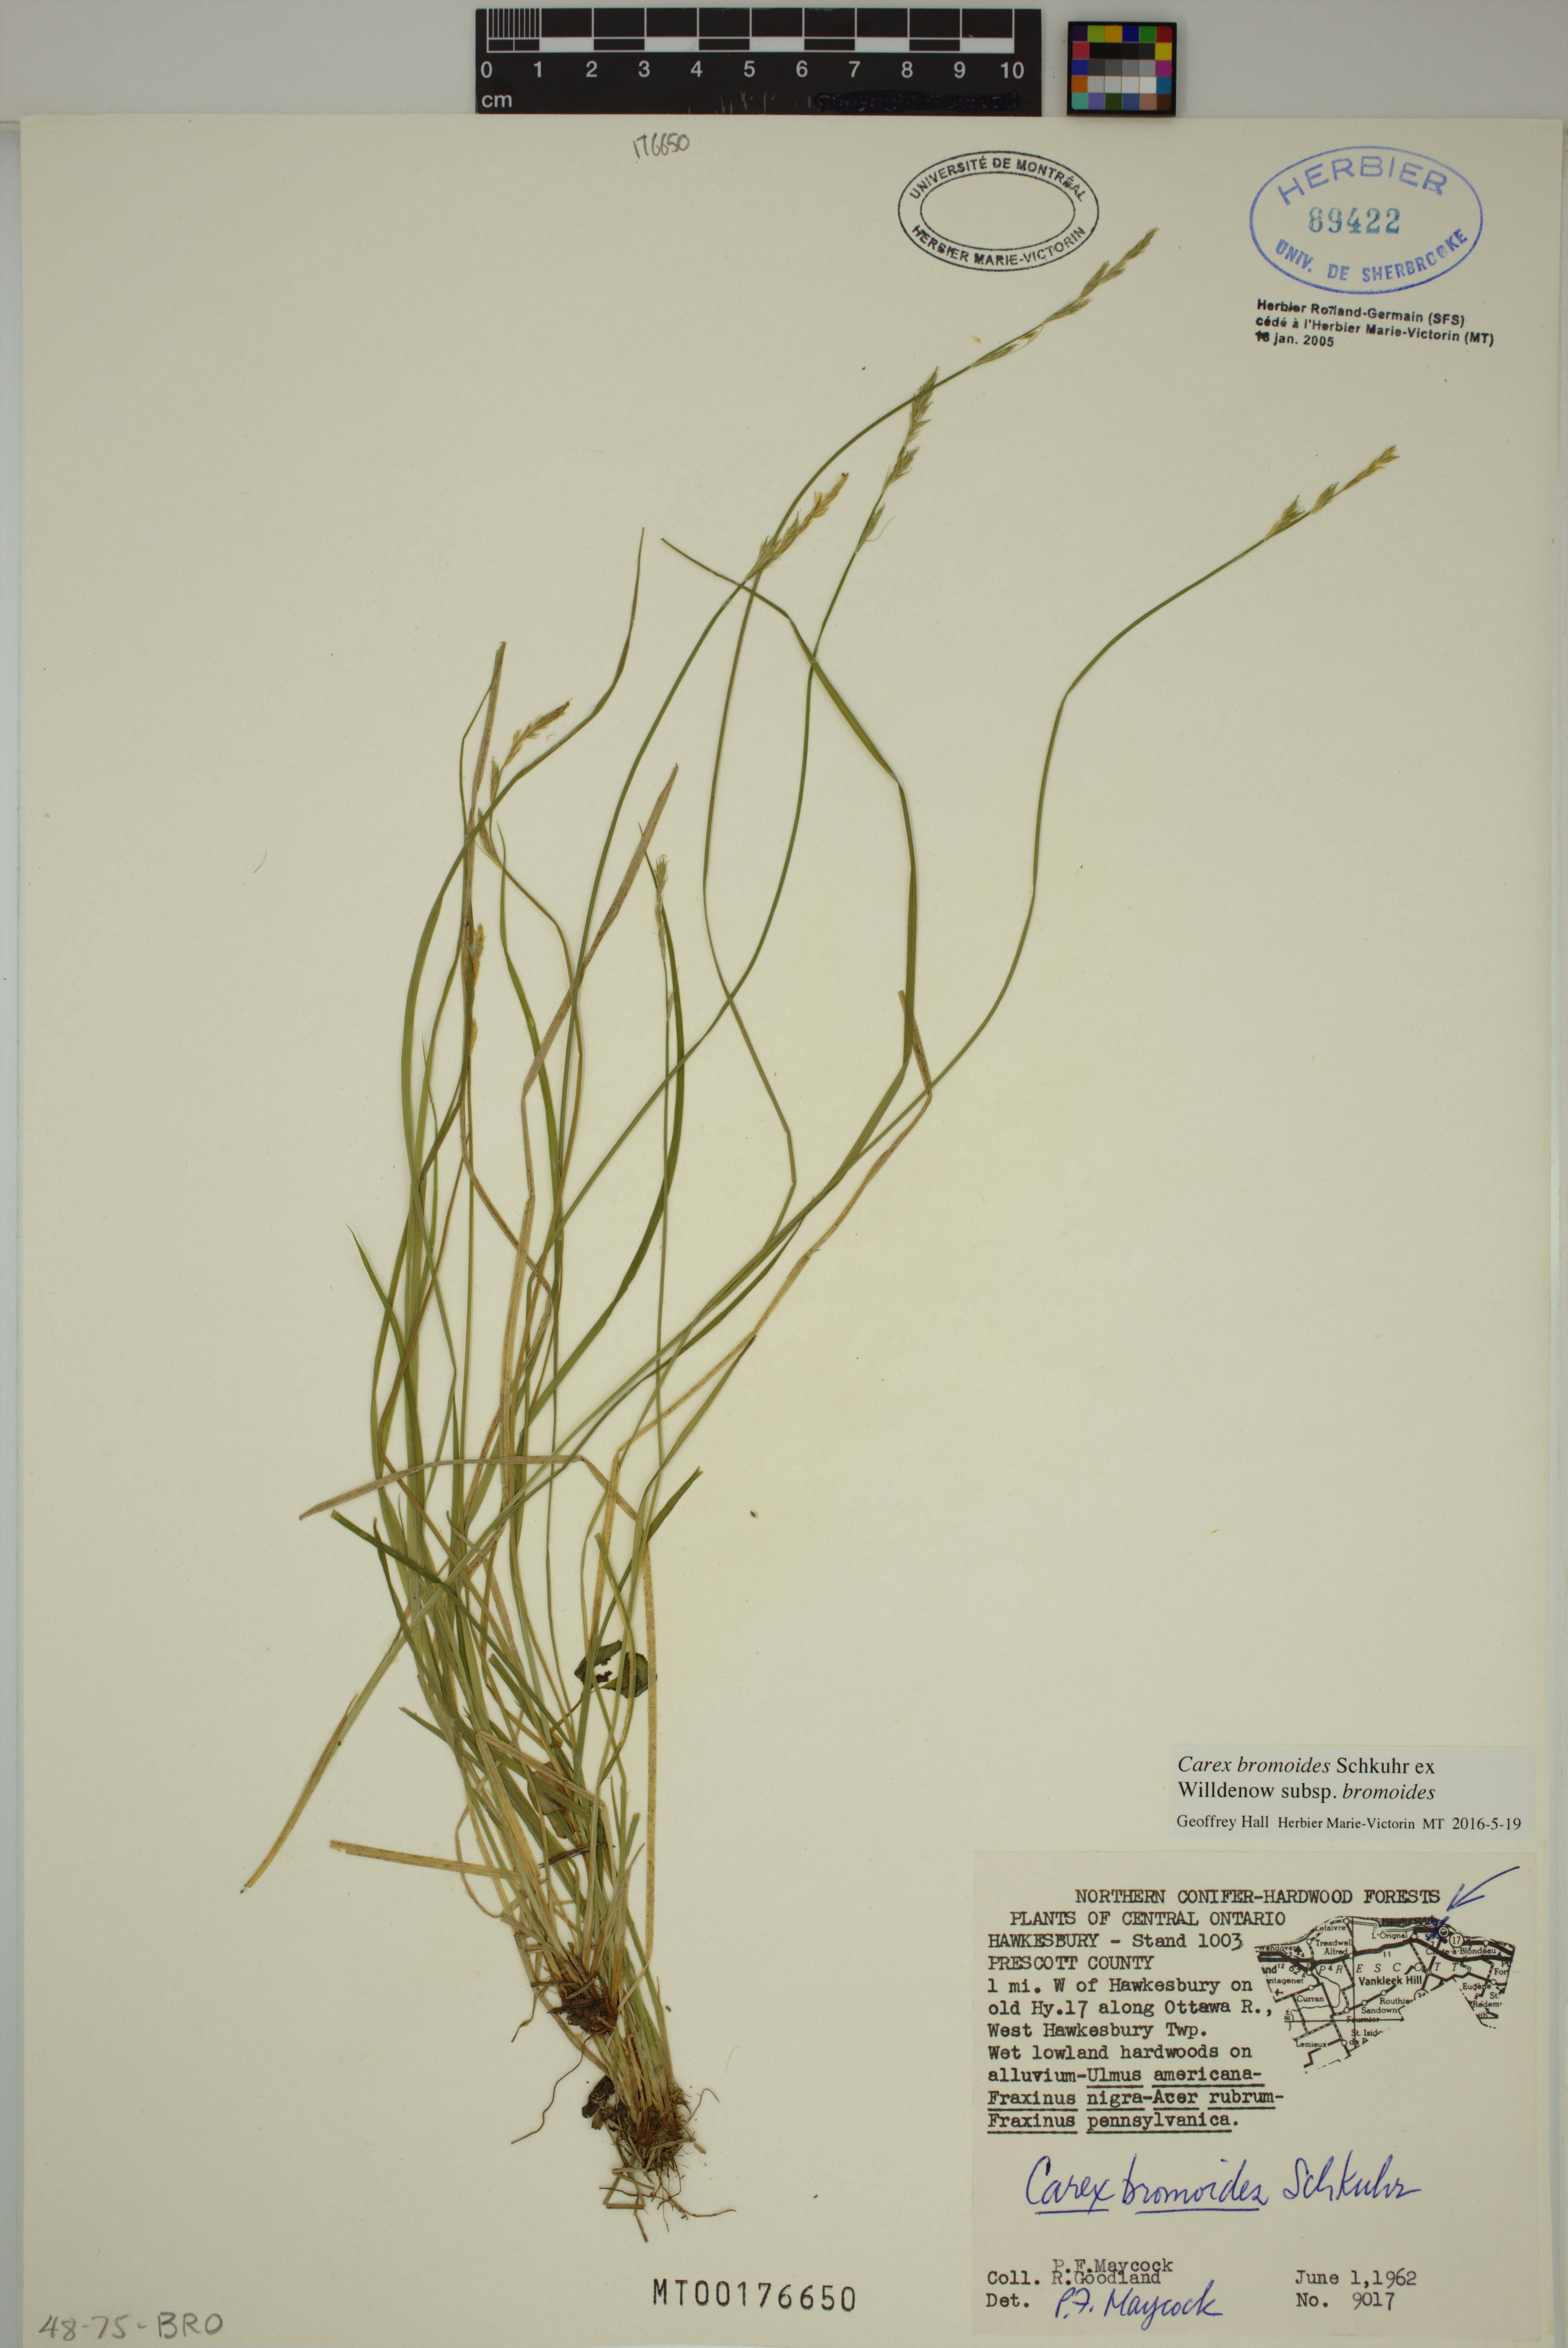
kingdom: Plantae
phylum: Tracheophyta
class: Liliopsida
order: Poales
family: Cyperaceae
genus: Carex
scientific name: Carex bromoides
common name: Brome hummock sedge
